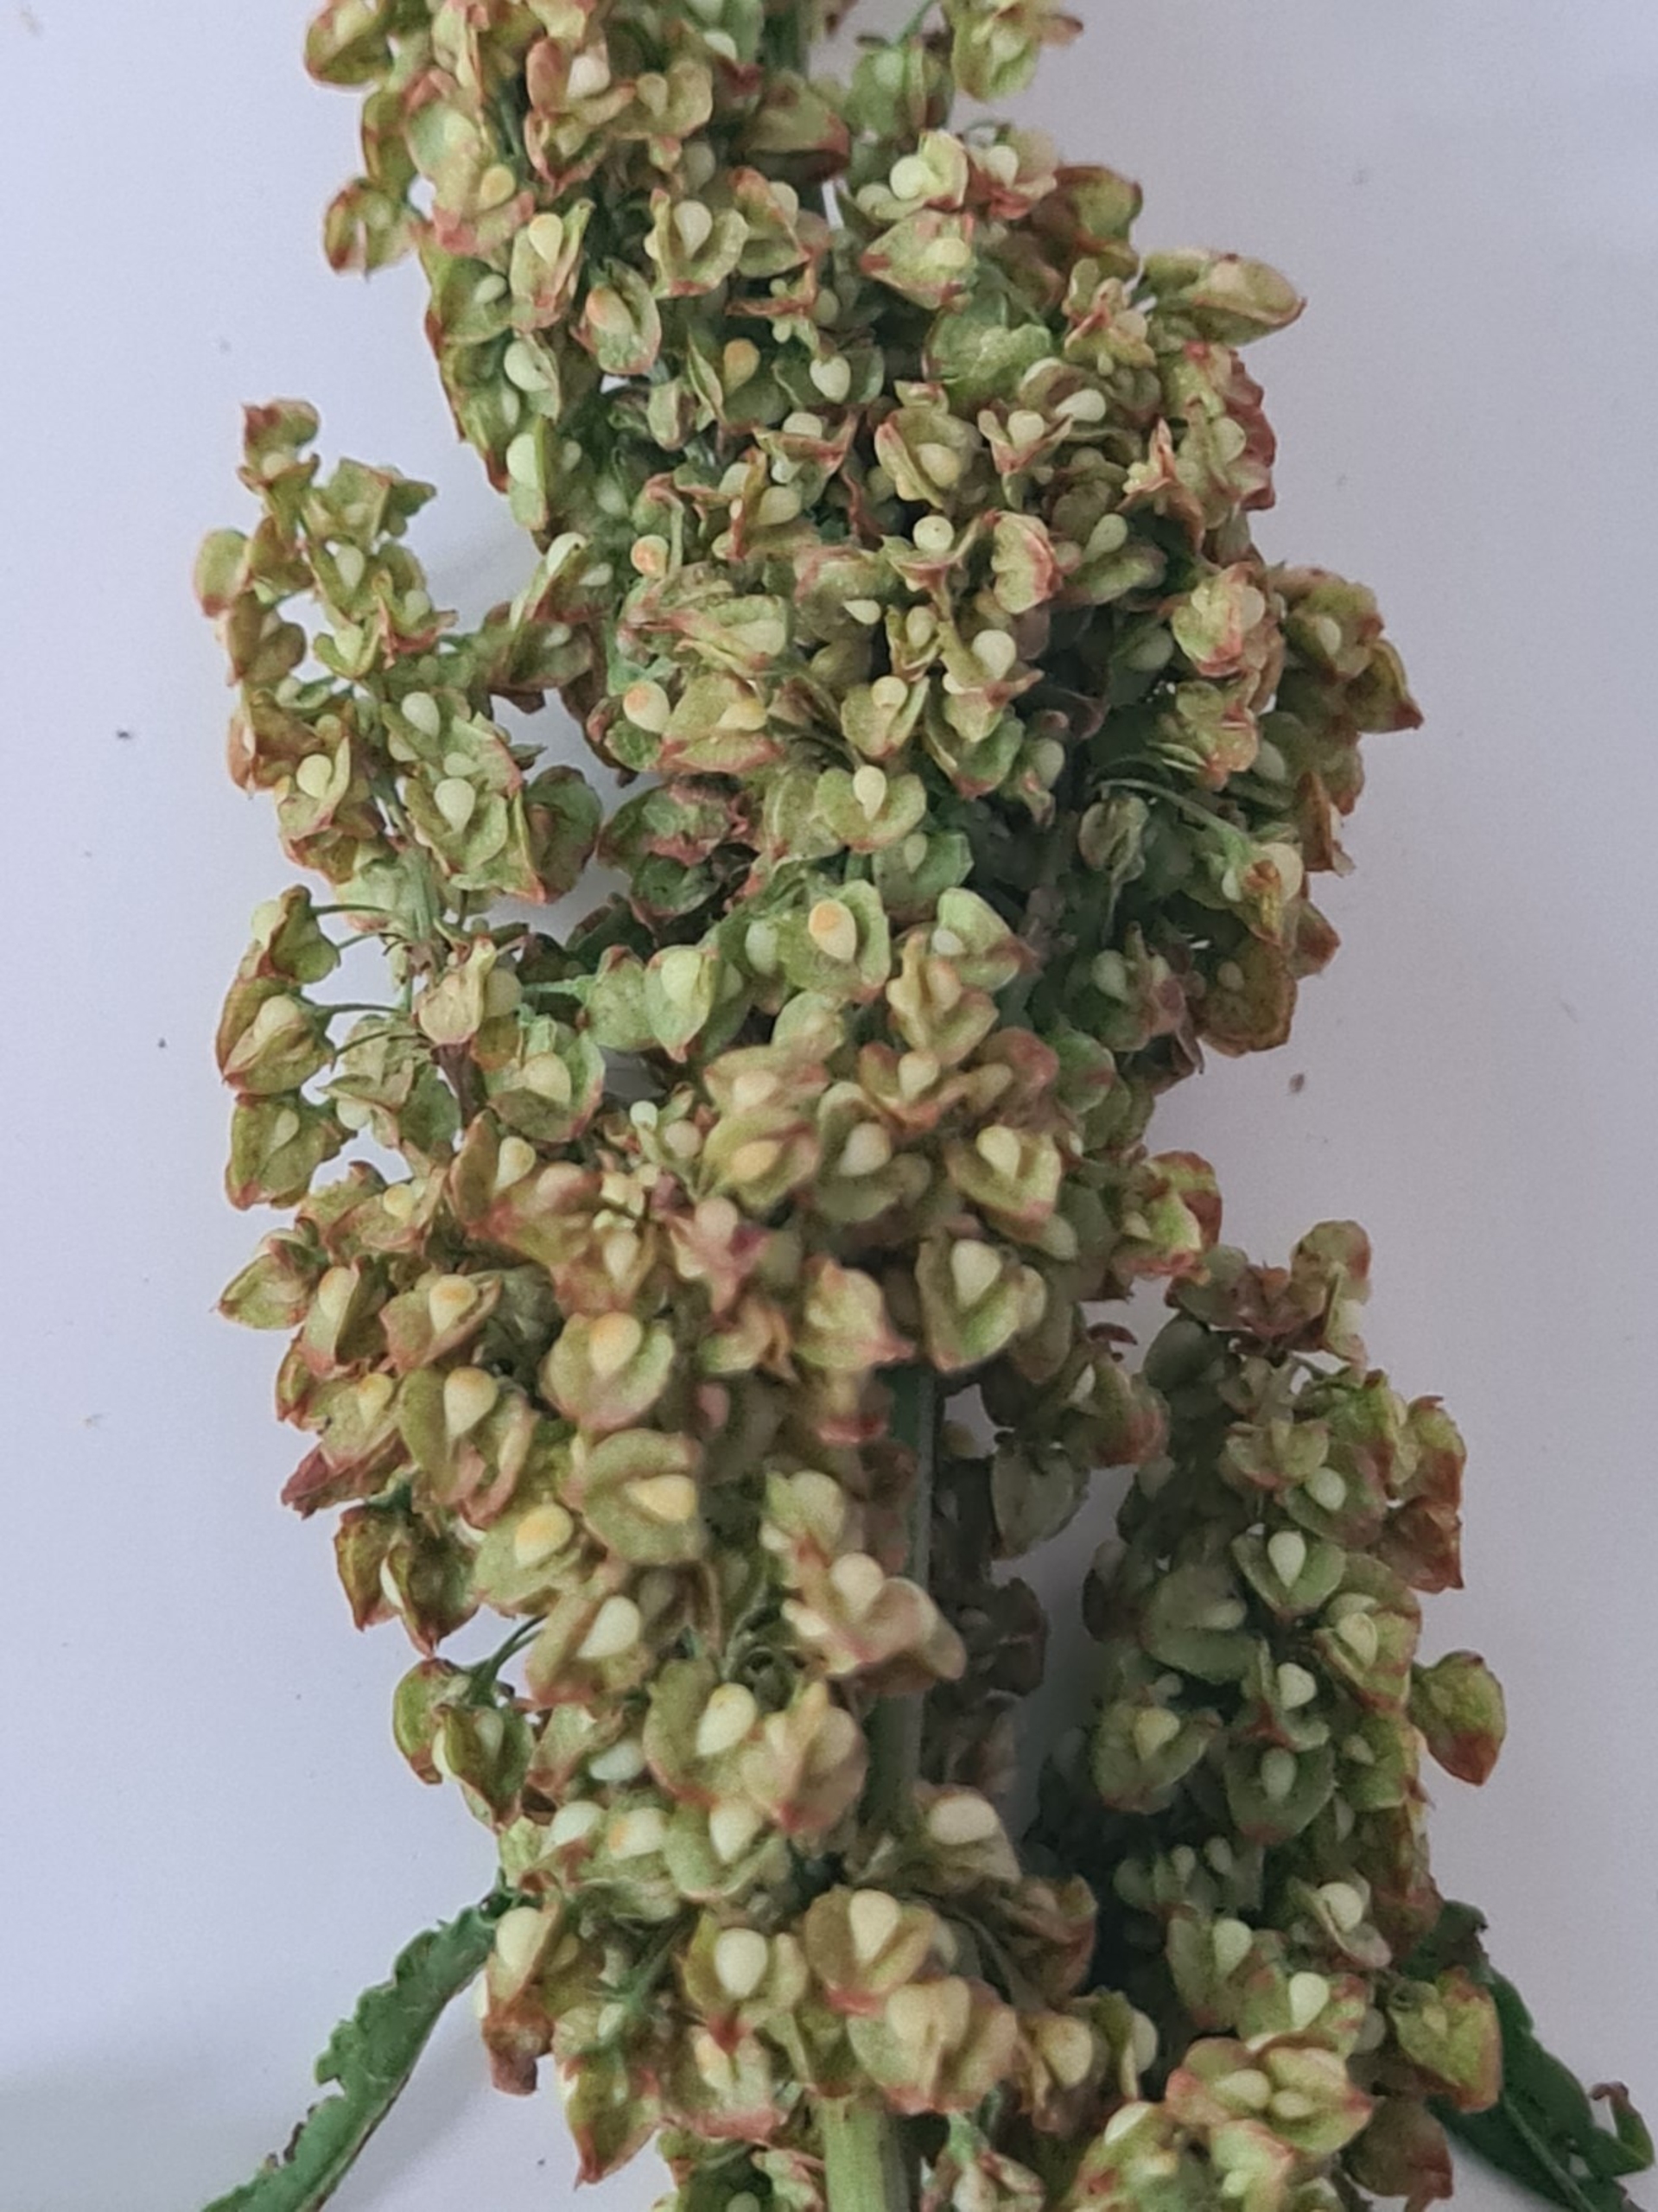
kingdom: Plantae
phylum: Tracheophyta
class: Magnoliopsida
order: Caryophyllales
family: Polygonaceae
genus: Rumex
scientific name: Rumex crispus
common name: Kruset skræppe
